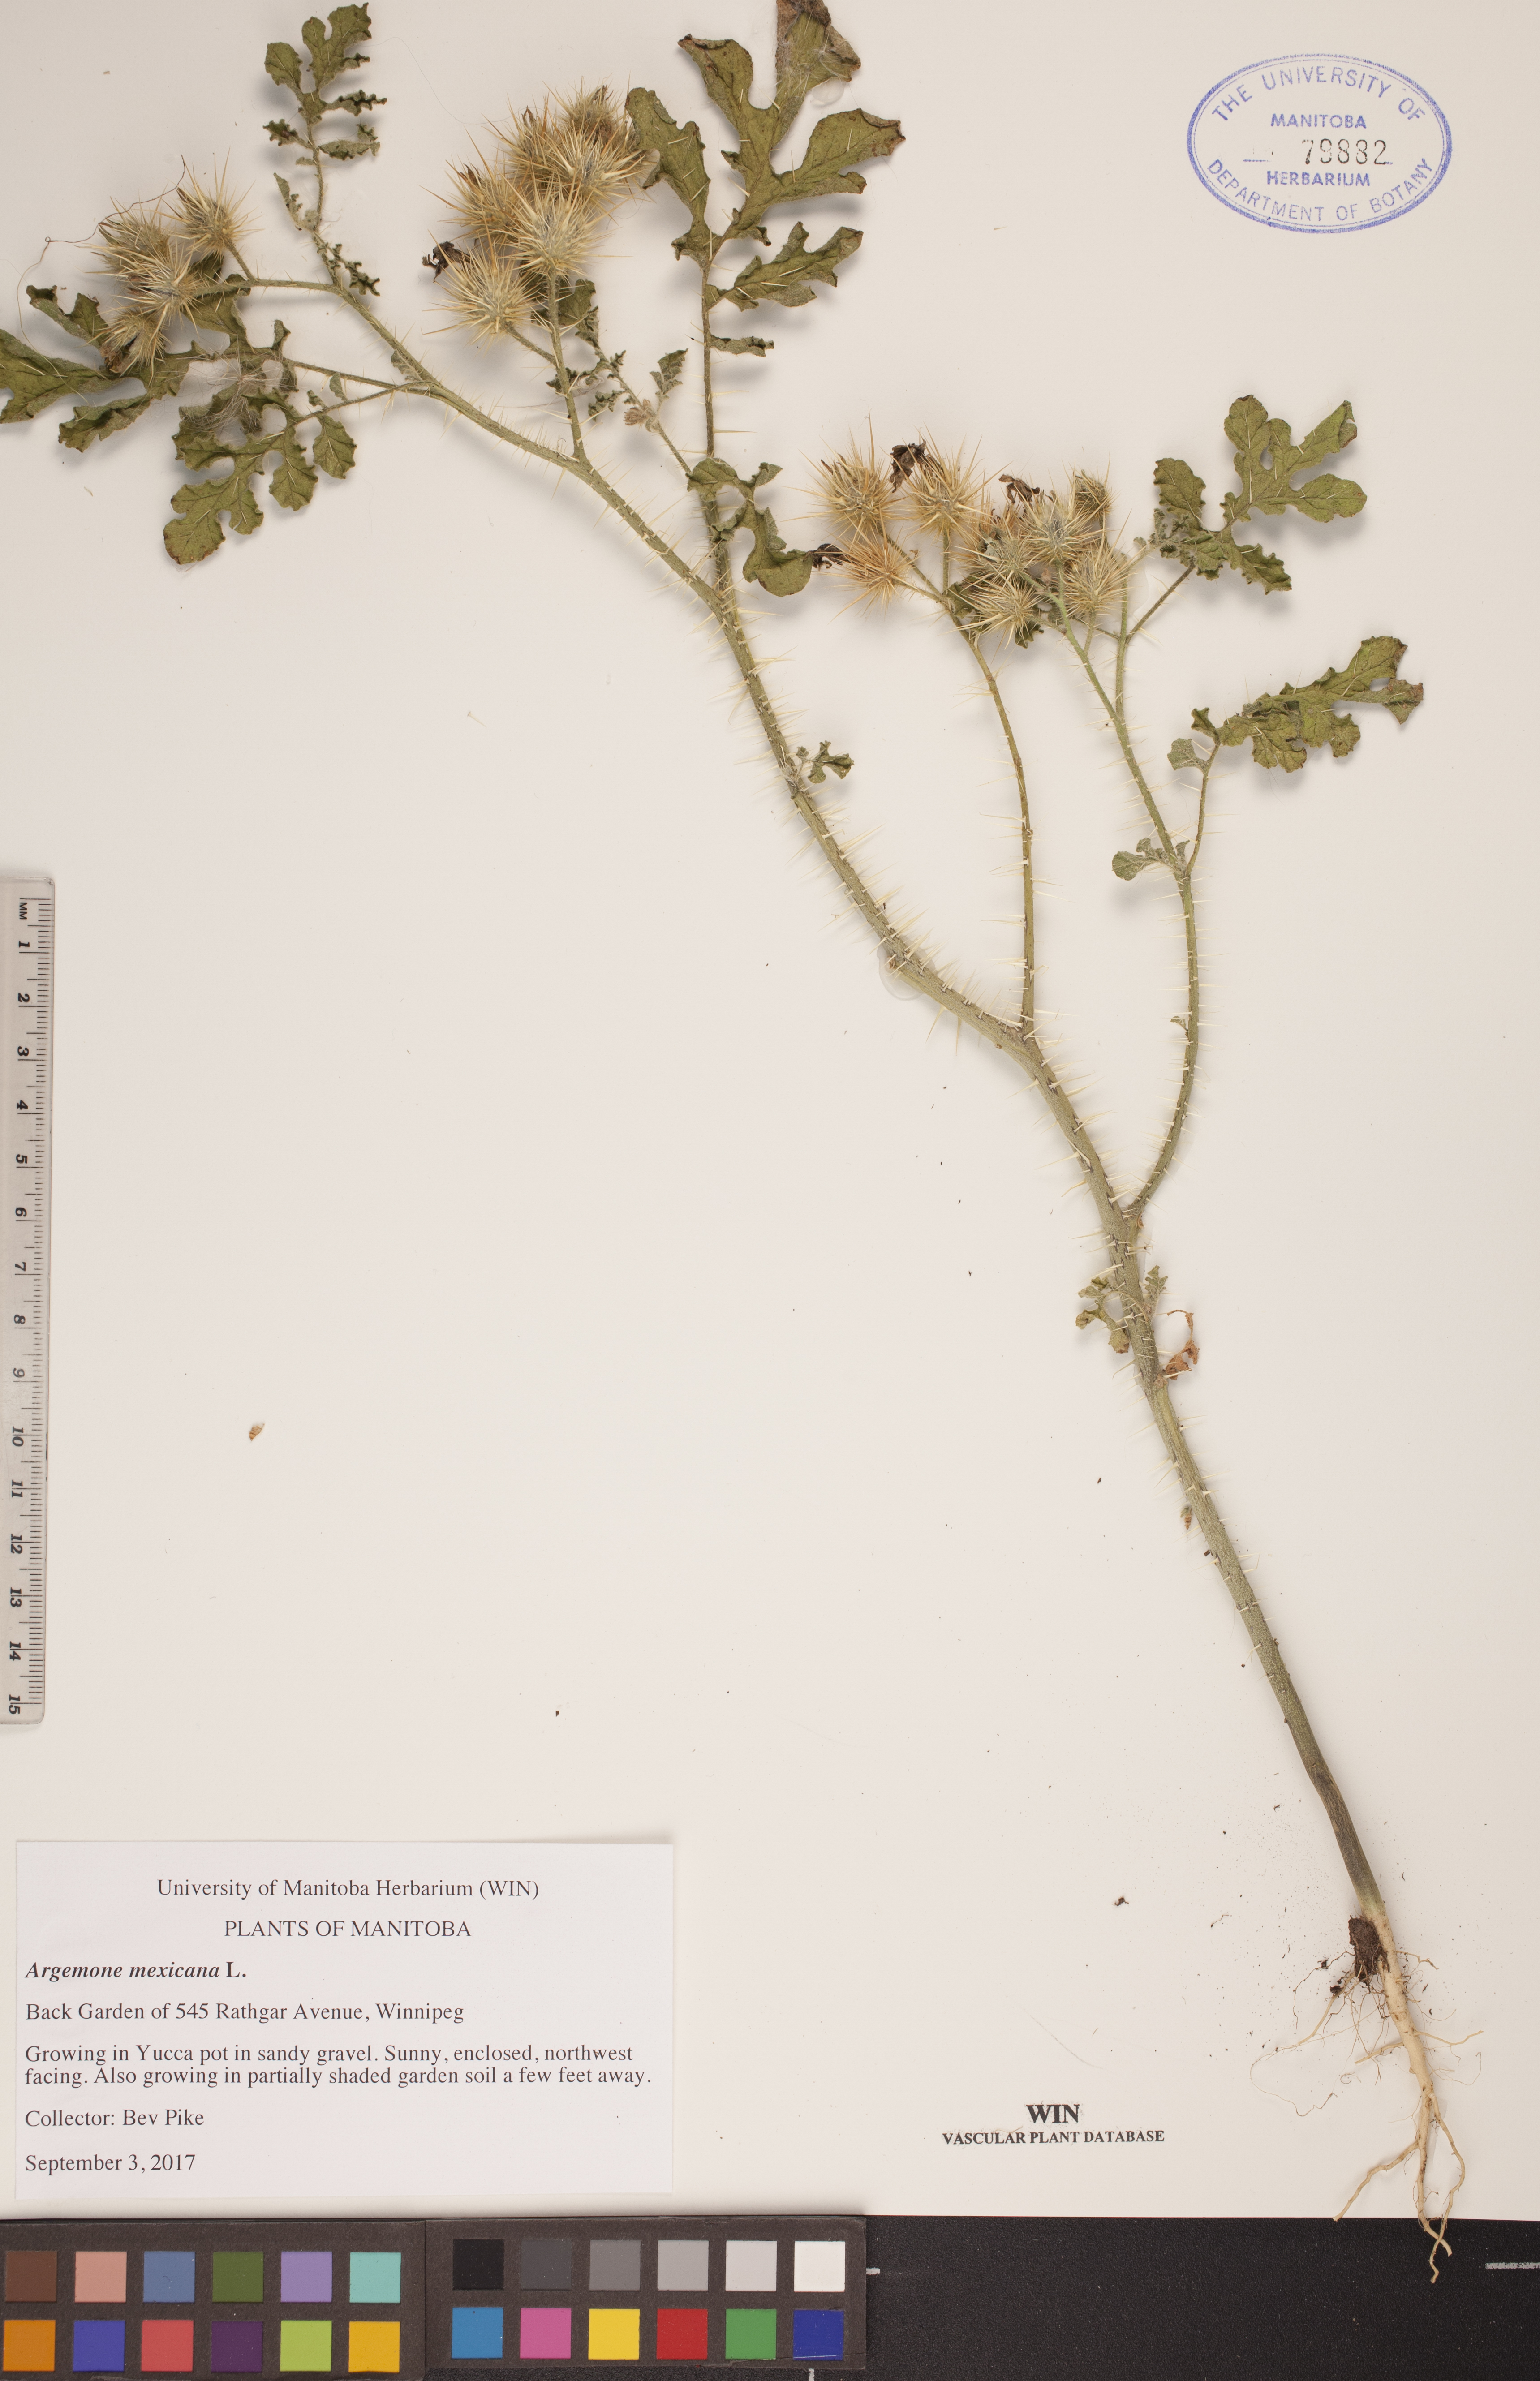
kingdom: Plantae
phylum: Tracheophyta
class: Magnoliopsida
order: Ranunculales
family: Papaveraceae
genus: Argemone
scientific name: Argemone mexicana
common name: Mexican poppy
